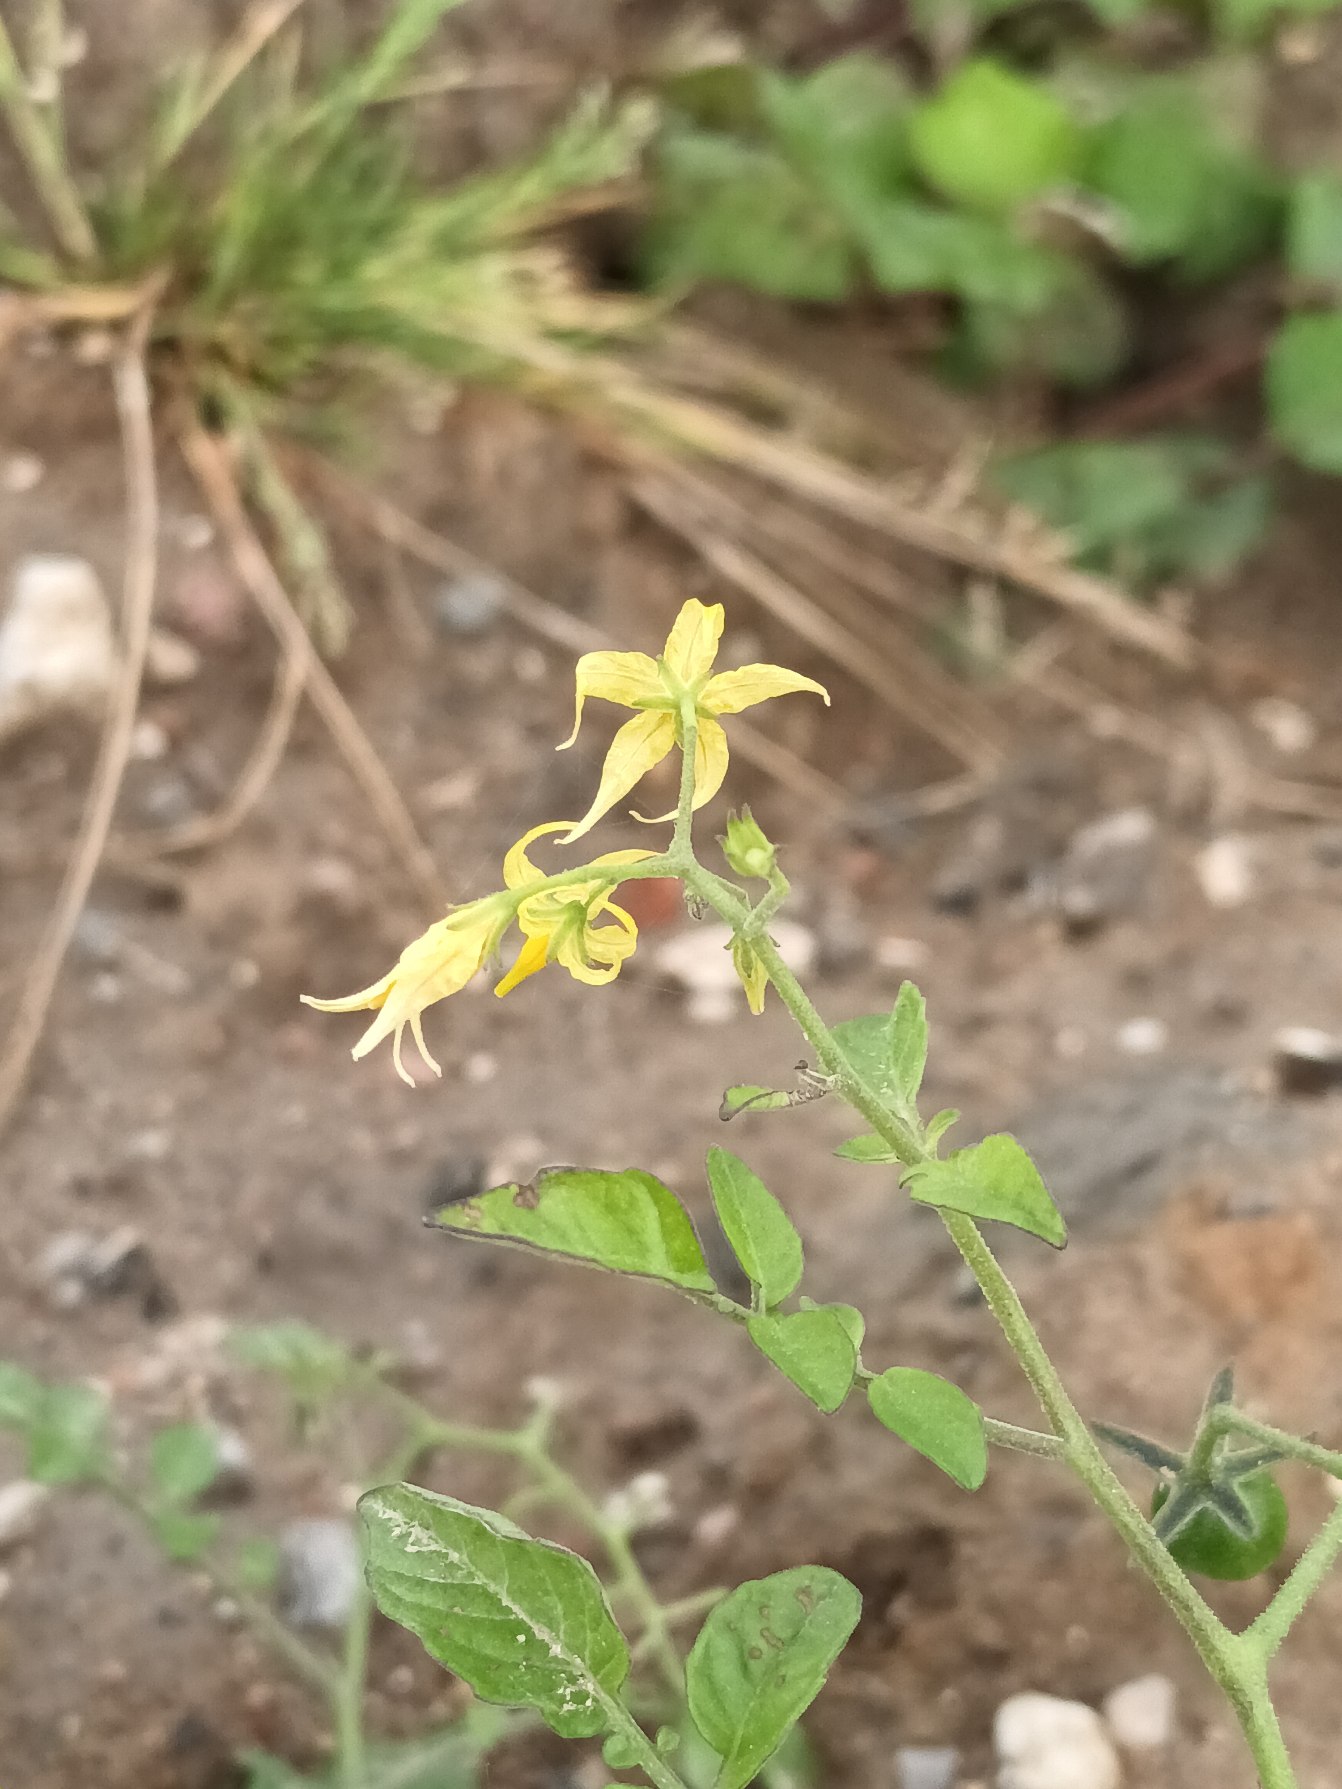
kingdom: Plantae
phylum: Tracheophyta
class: Magnoliopsida
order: Solanales
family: Solanaceae
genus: Solanum
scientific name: Solanum pimpinellifolium
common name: Cherry-tomat
